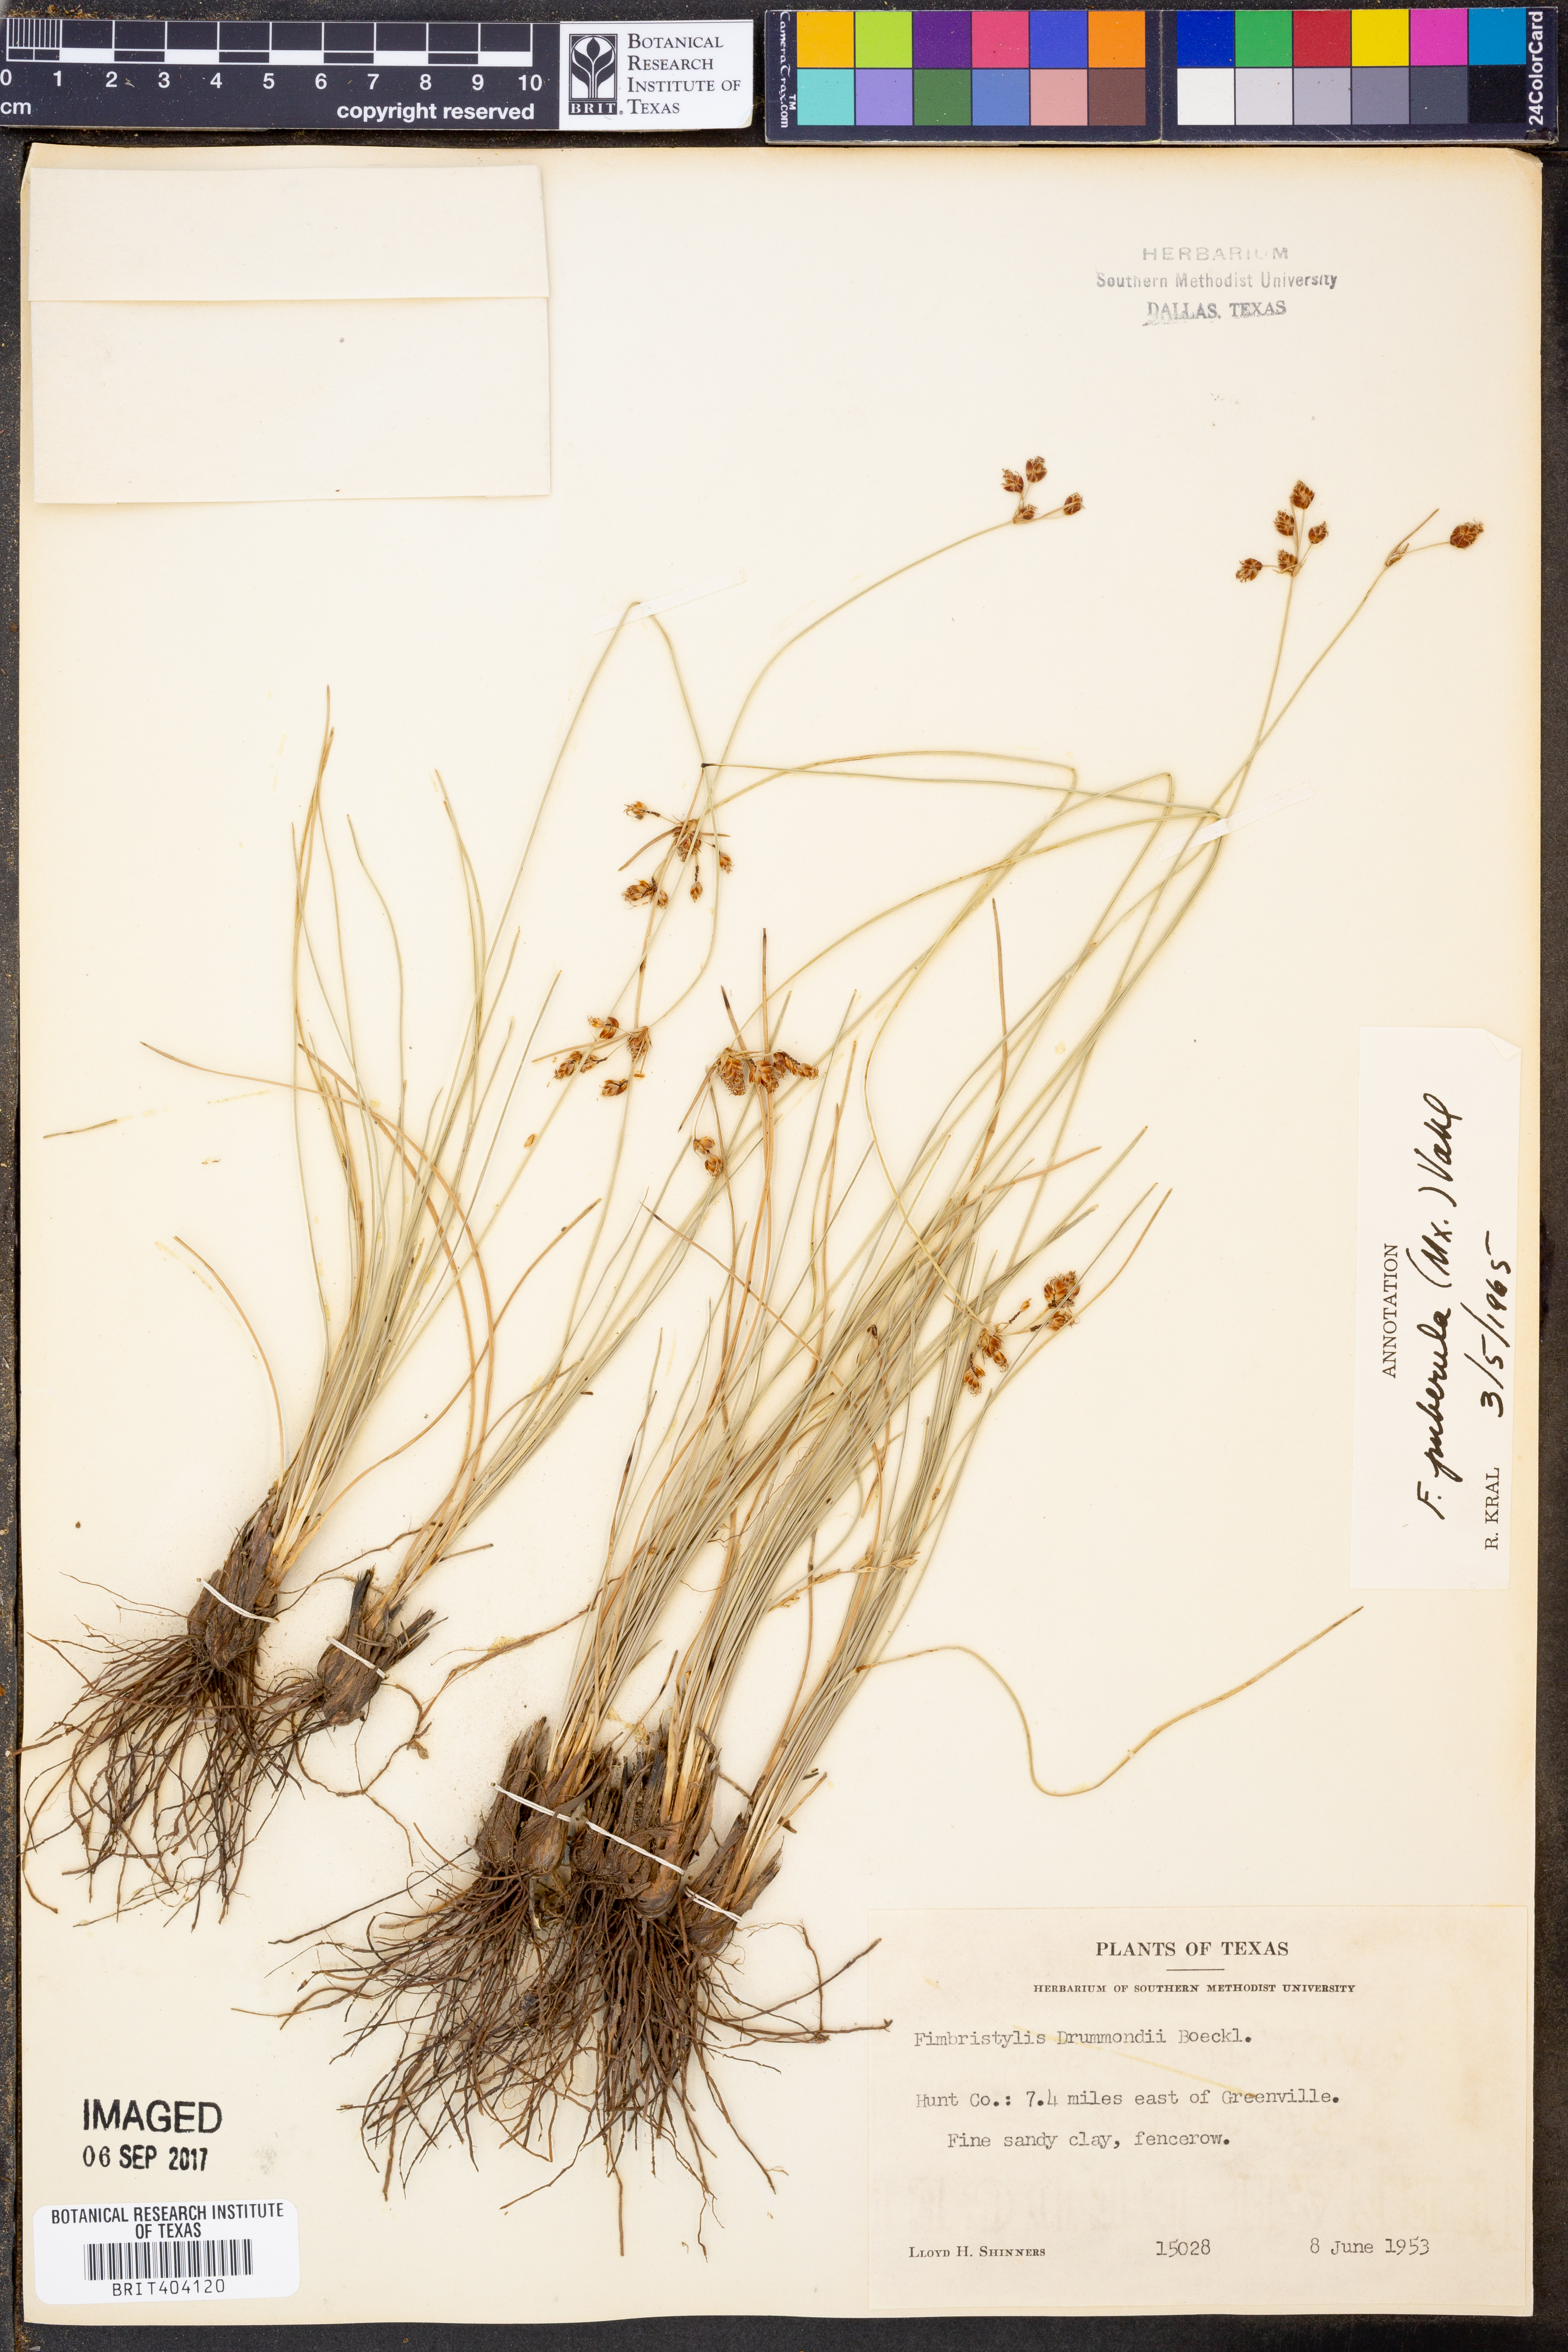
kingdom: Plantae
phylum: Tracheophyta
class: Liliopsida
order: Poales
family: Cyperaceae
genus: Fimbristylis
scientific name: Fimbristylis puberula
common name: Hairy fimbristylis
